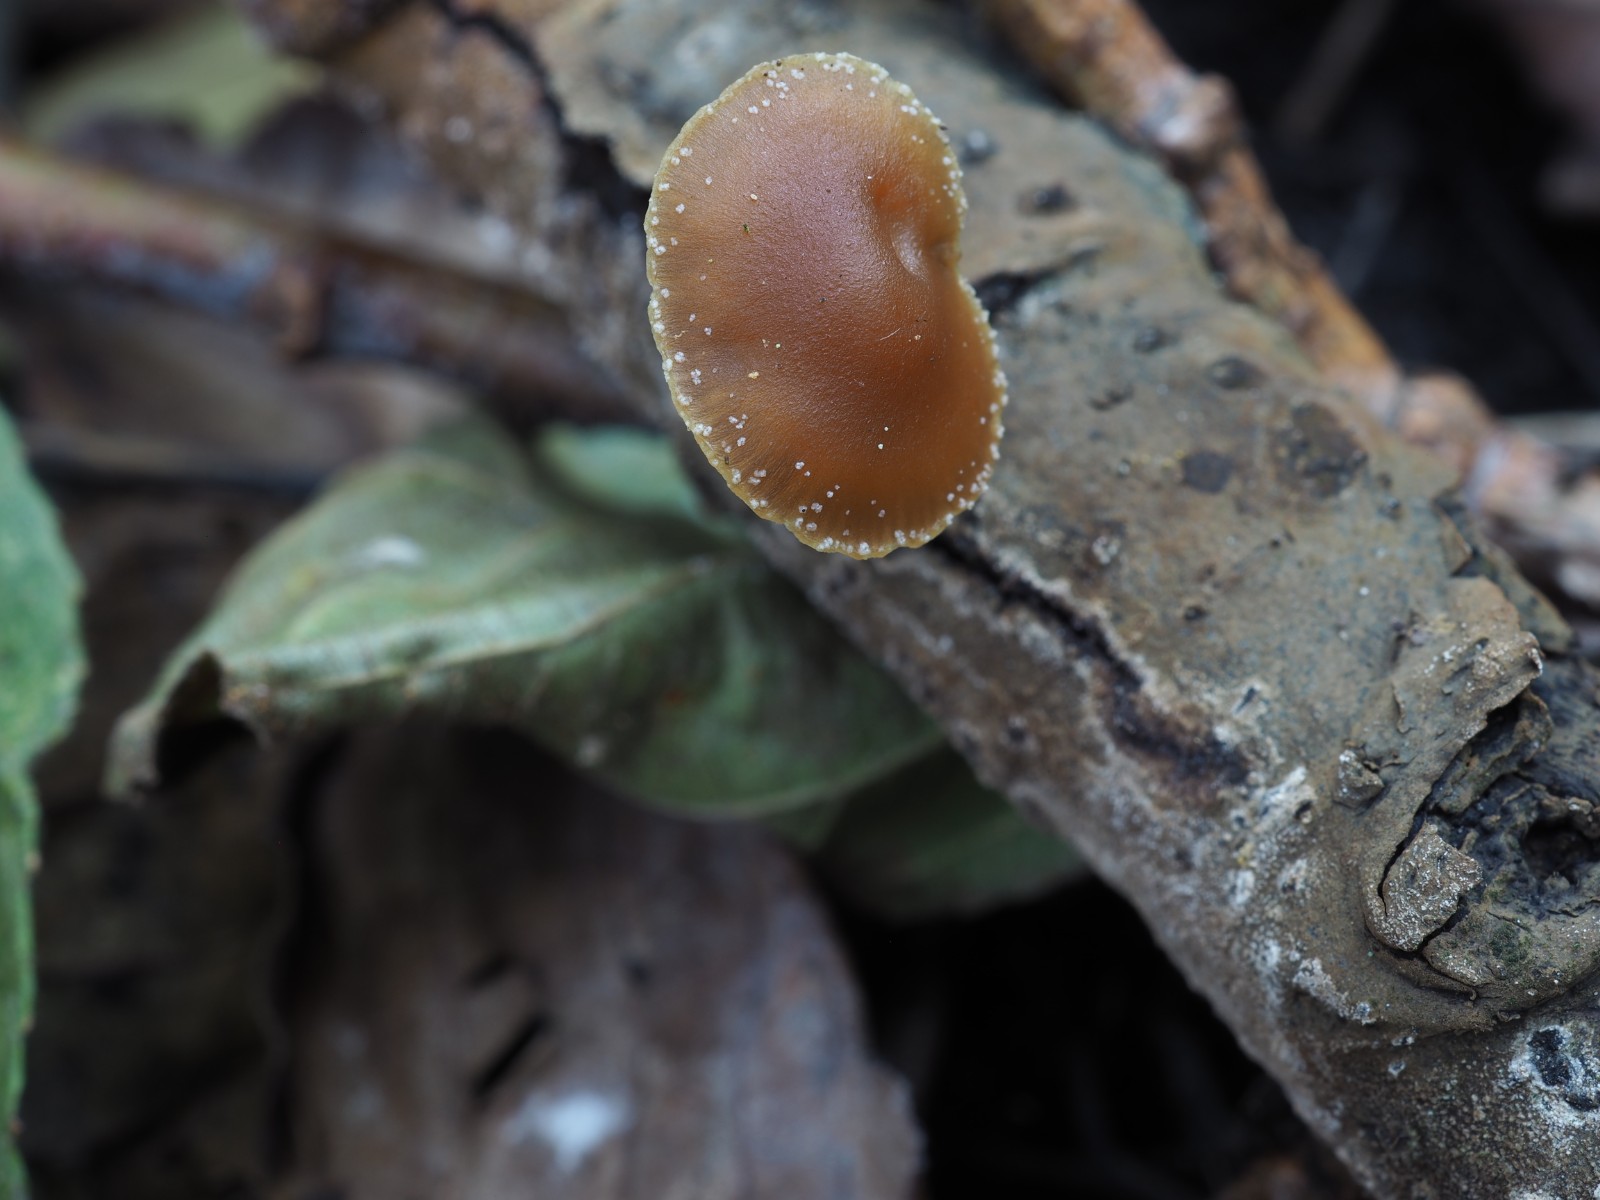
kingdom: Fungi
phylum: Basidiomycota
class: Agaricomycetes
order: Agaricales
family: Strophariaceae
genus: Hypholoma
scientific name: Hypholoma subericaeum
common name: eng-svovlhat
